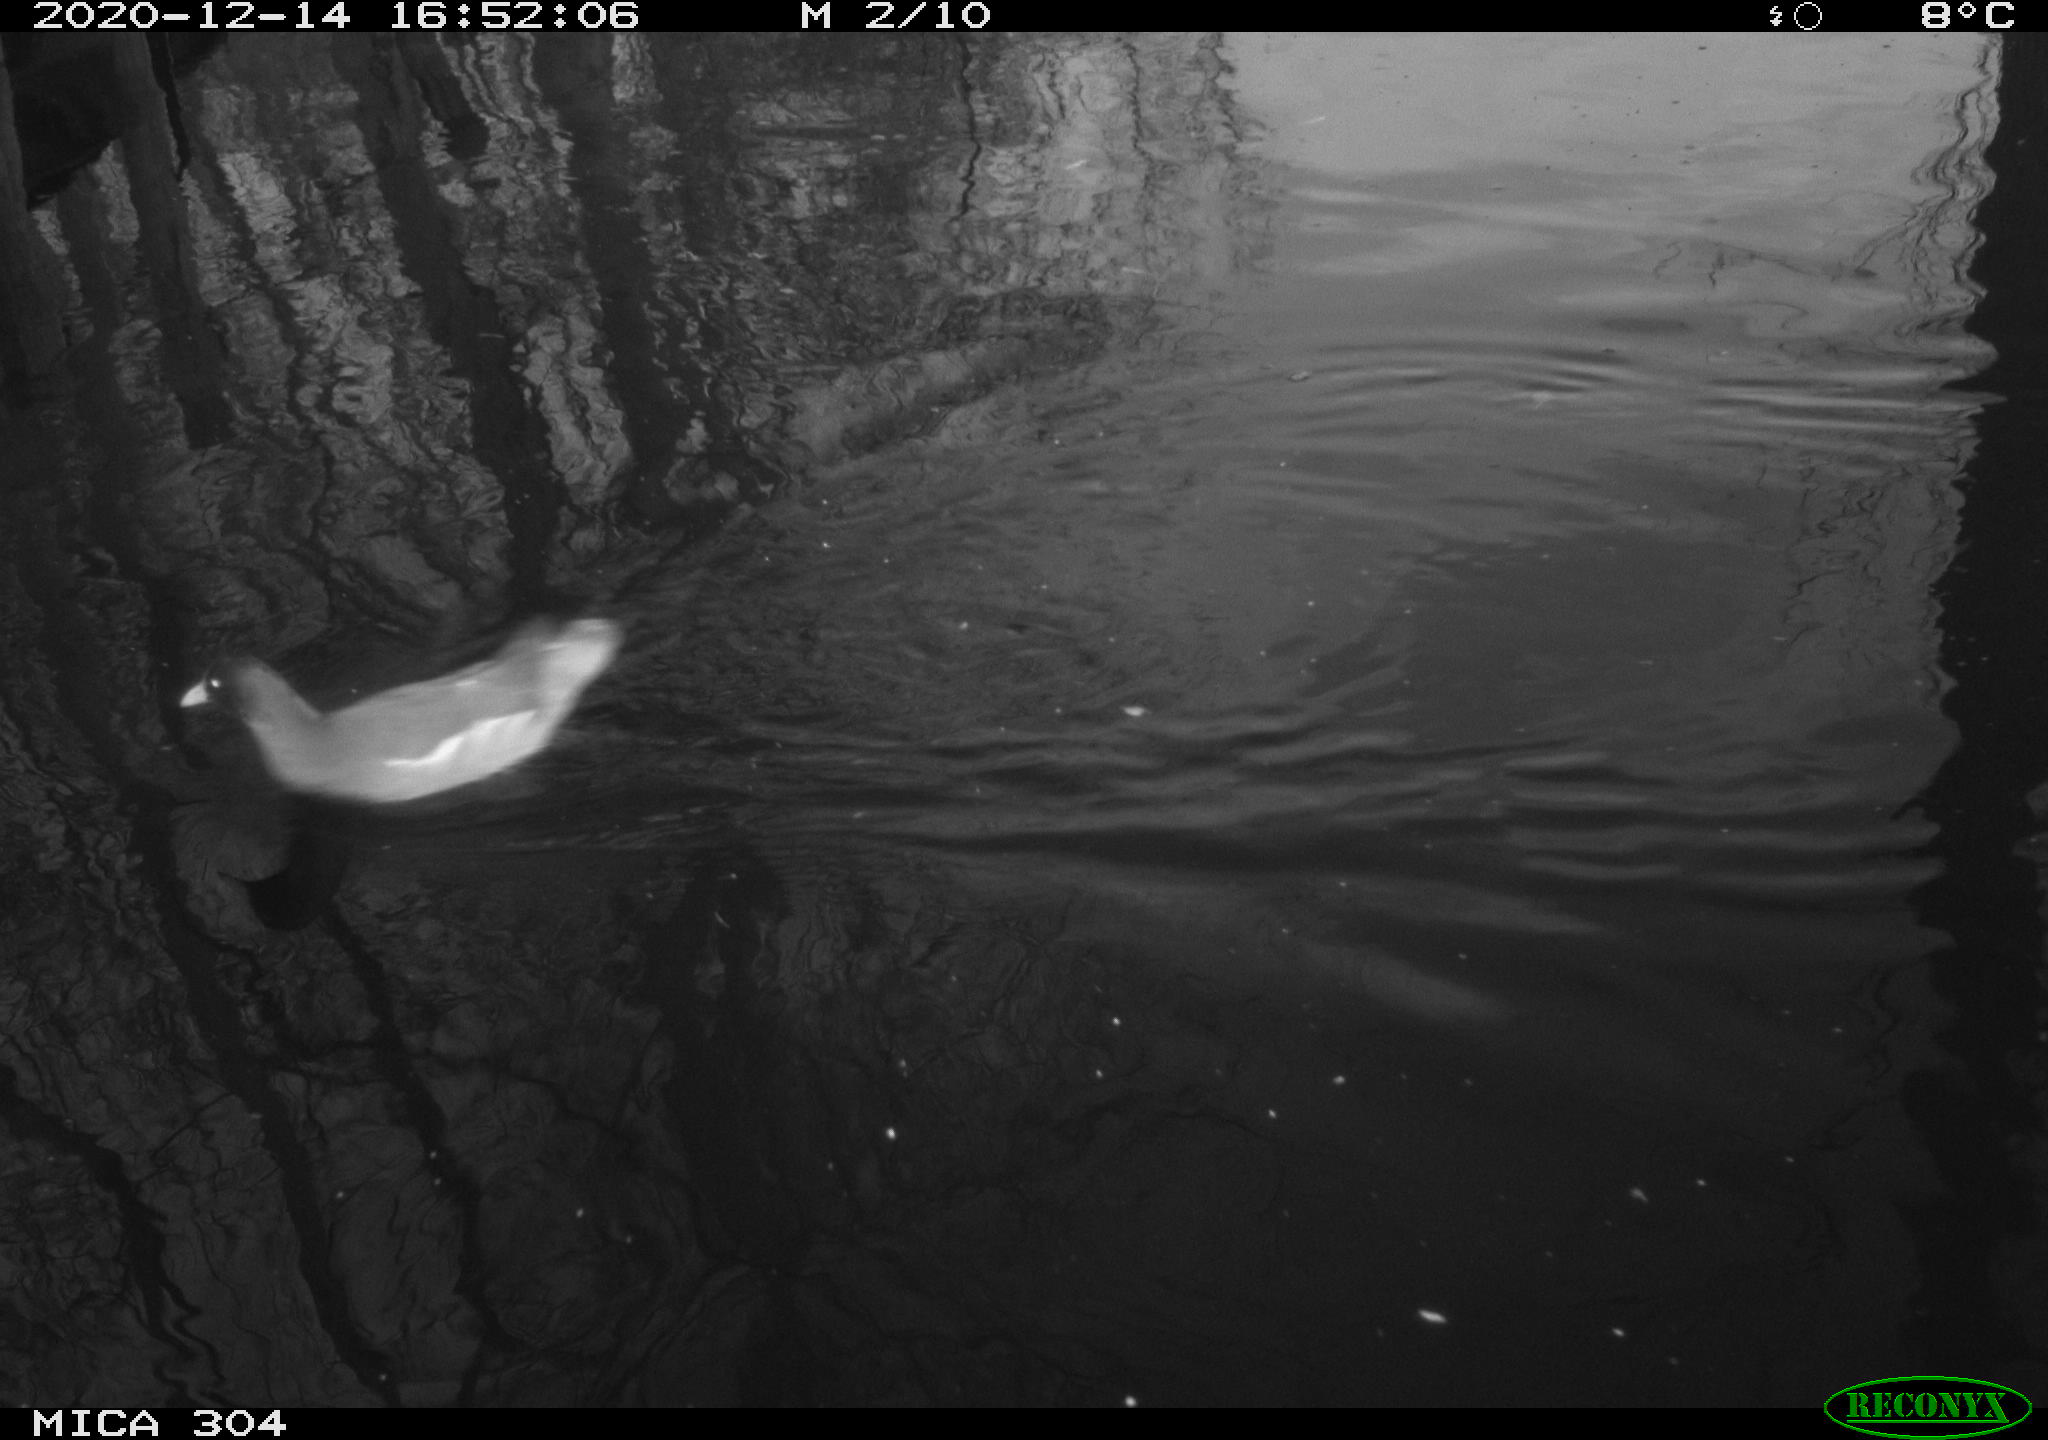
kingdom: Animalia
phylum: Chordata
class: Aves
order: Gruiformes
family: Rallidae
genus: Gallinula
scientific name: Gallinula chloropus
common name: Common moorhen
